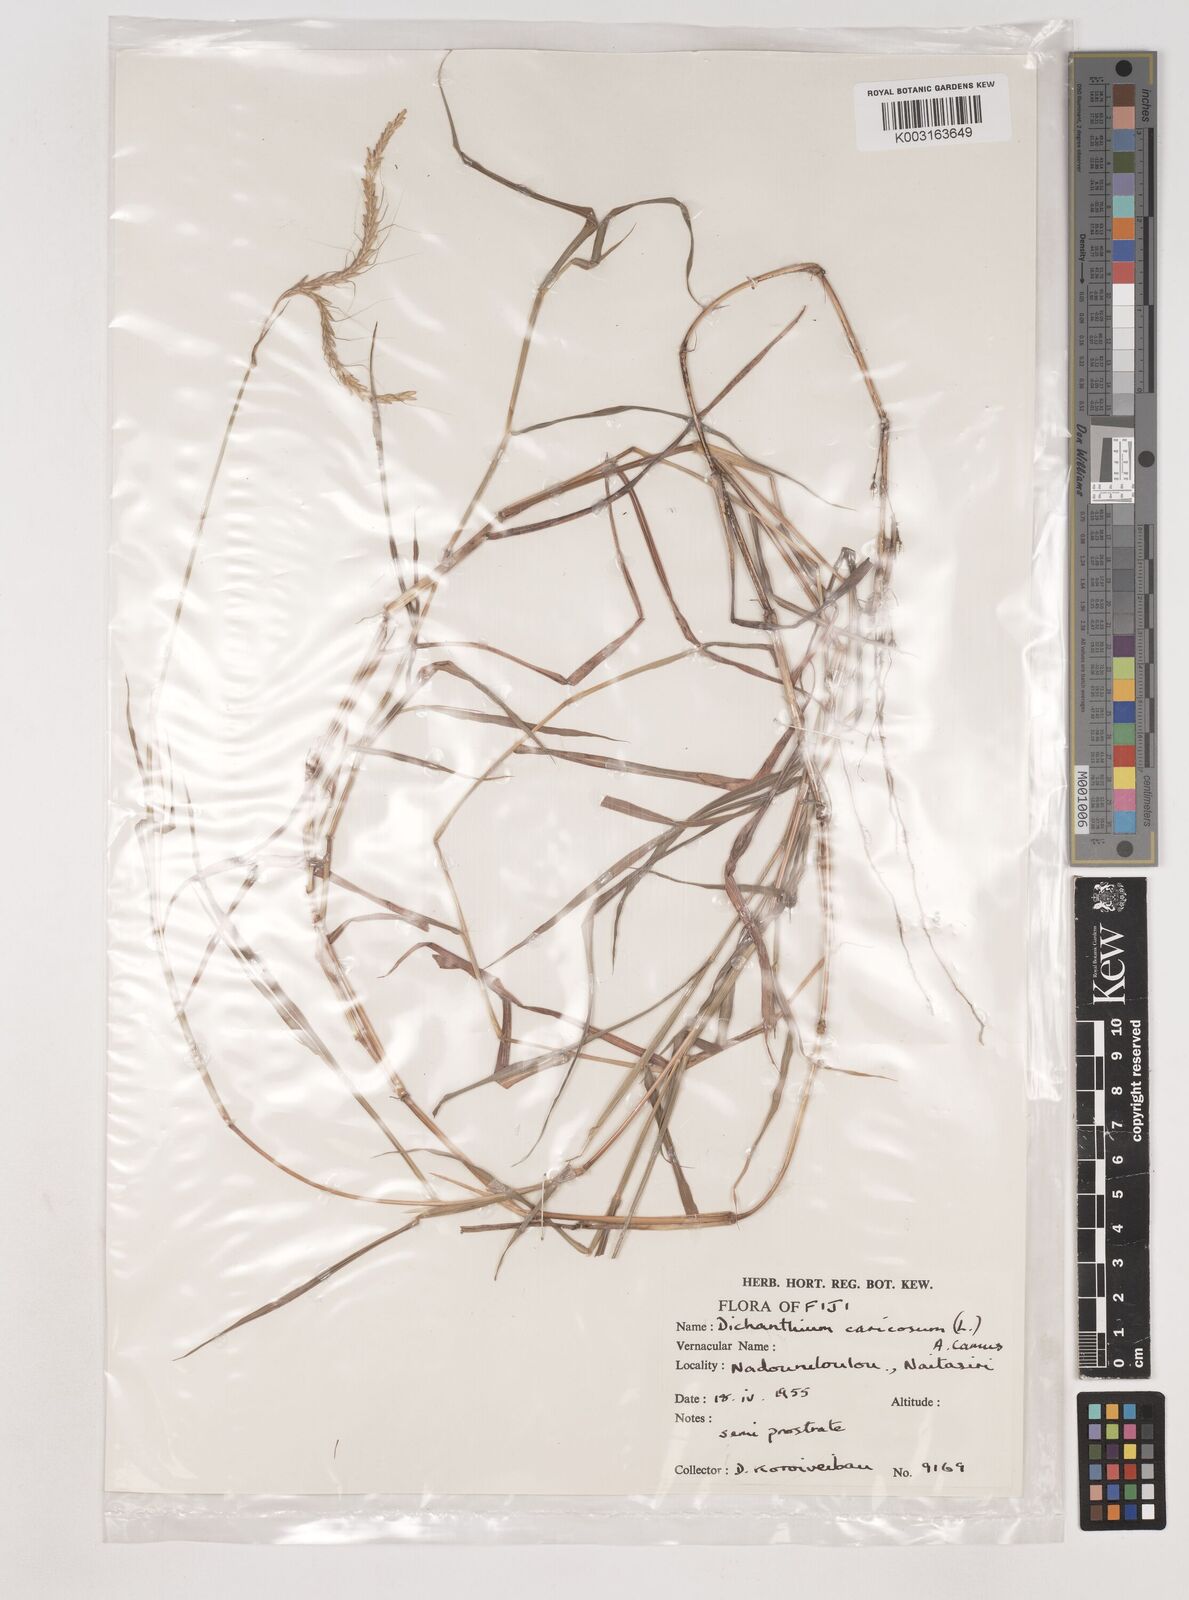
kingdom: Plantae
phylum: Tracheophyta
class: Liliopsida
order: Poales
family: Poaceae
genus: Dichanthium
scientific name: Dichanthium caricosum
